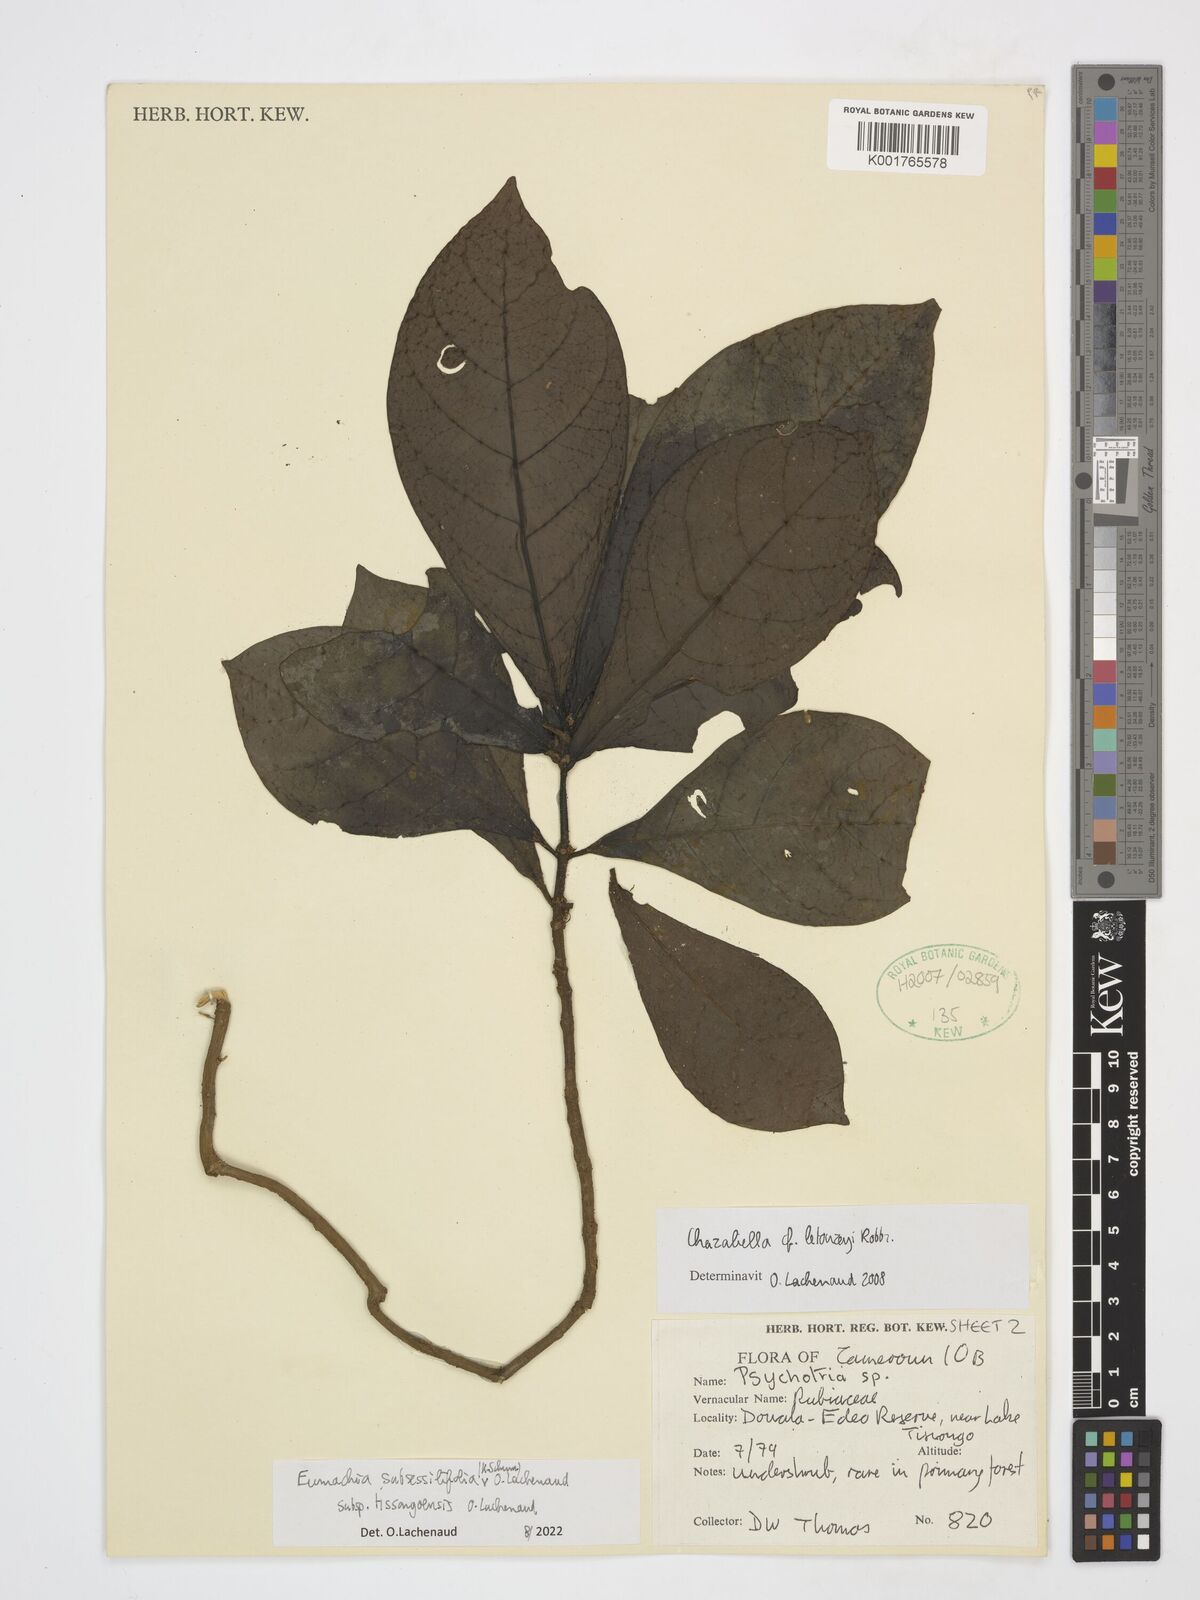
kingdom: Plantae
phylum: Tracheophyta
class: Magnoliopsida
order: Gentianales
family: Rubiaceae
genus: Eumachia
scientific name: Eumachia
